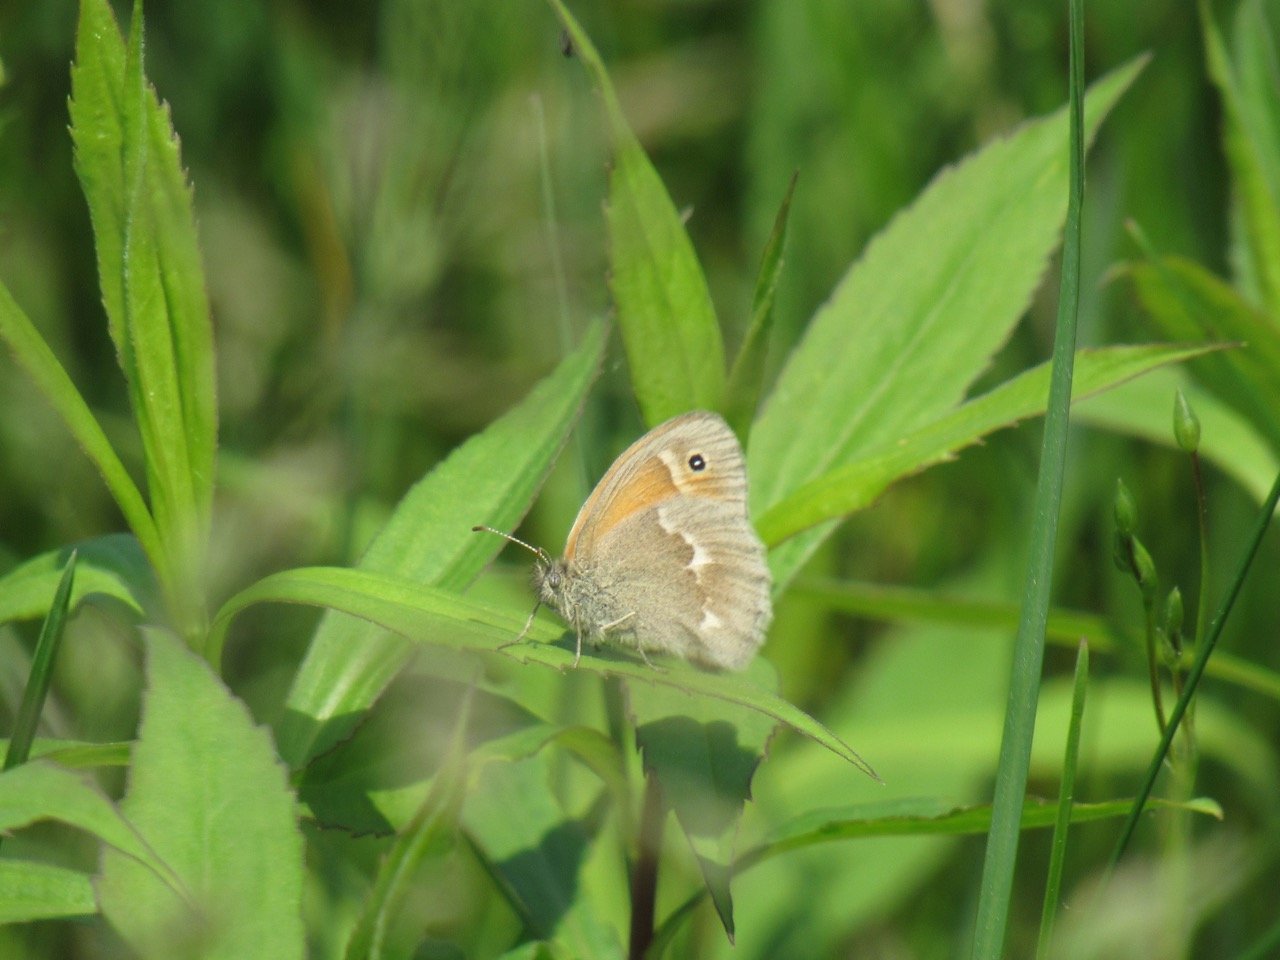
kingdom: Animalia
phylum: Arthropoda
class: Insecta
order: Lepidoptera
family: Nymphalidae
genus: Coenonympha
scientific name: Coenonympha tullia
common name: Large Heath
